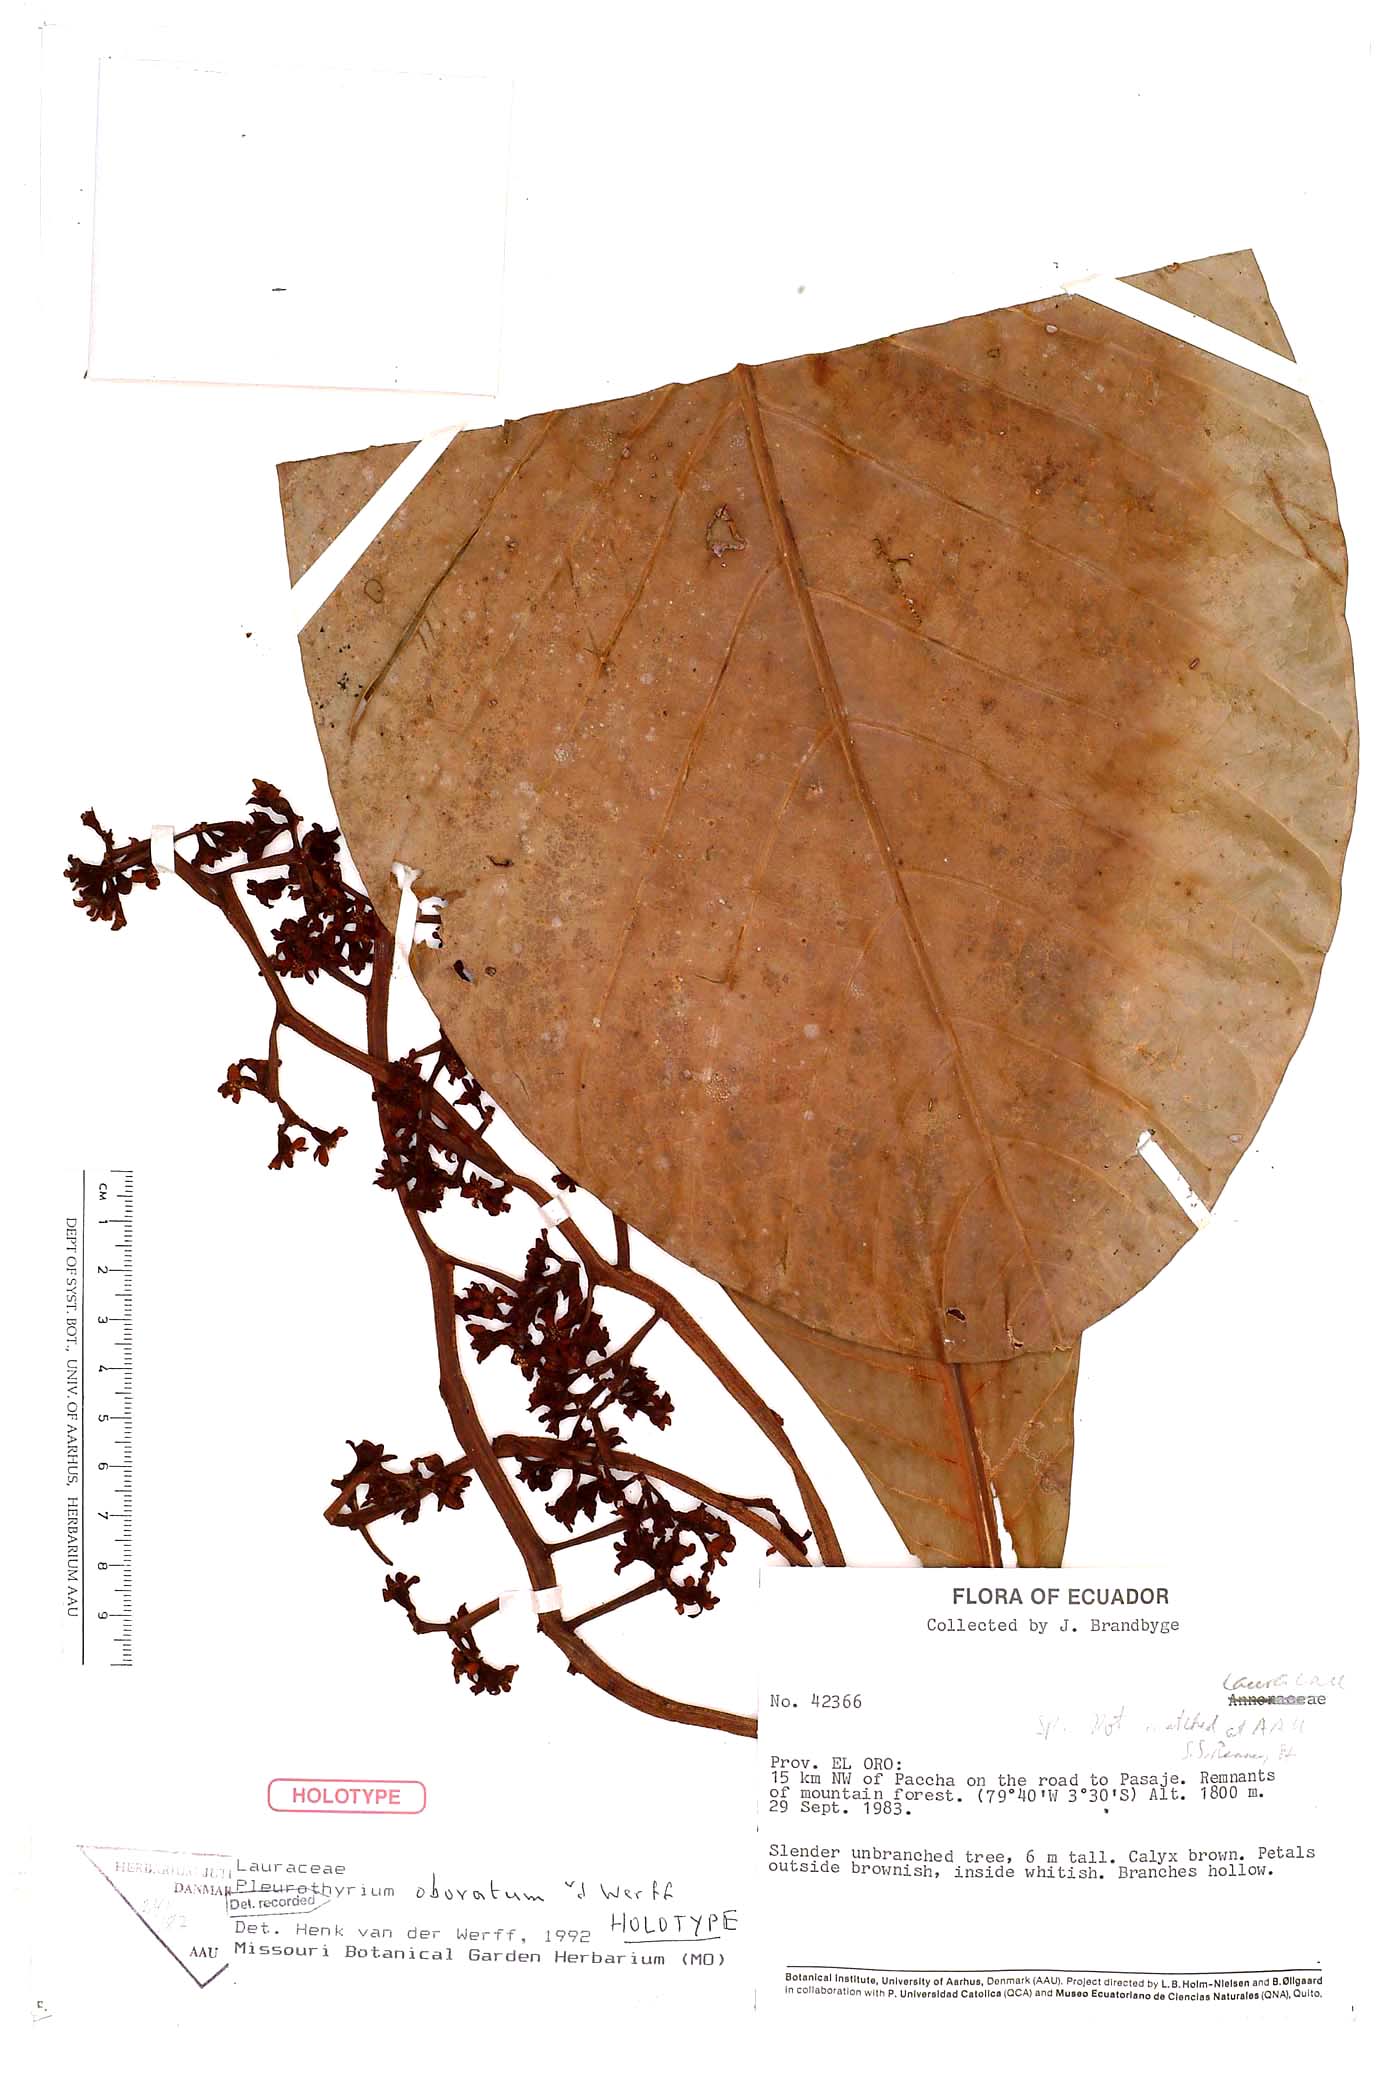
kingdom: Plantae
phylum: Tracheophyta
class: Magnoliopsida
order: Laurales
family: Lauraceae
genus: Pleurothyrium
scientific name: Pleurothyrium obovatum
